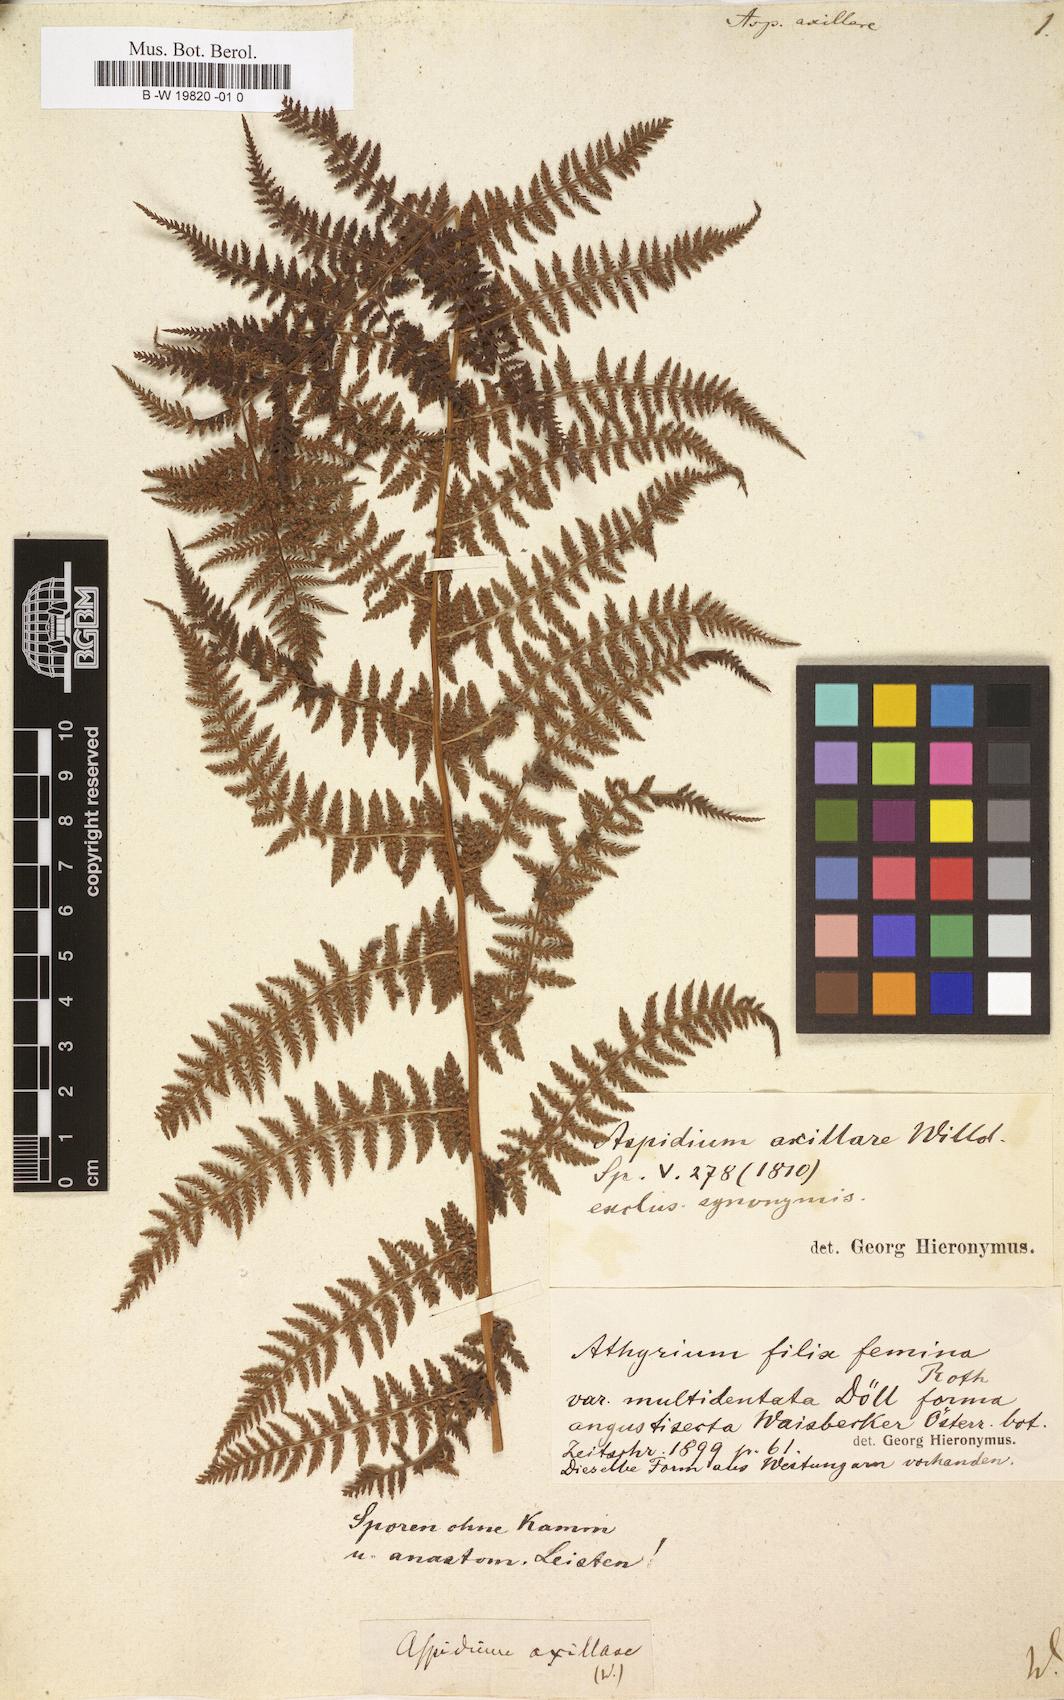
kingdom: Plantae
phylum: Tracheophyta
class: Polypodiopsida
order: Polypodiales
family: Athyriaceae
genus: Athyrium
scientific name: Athyrium filix-femina
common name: Lady fern
